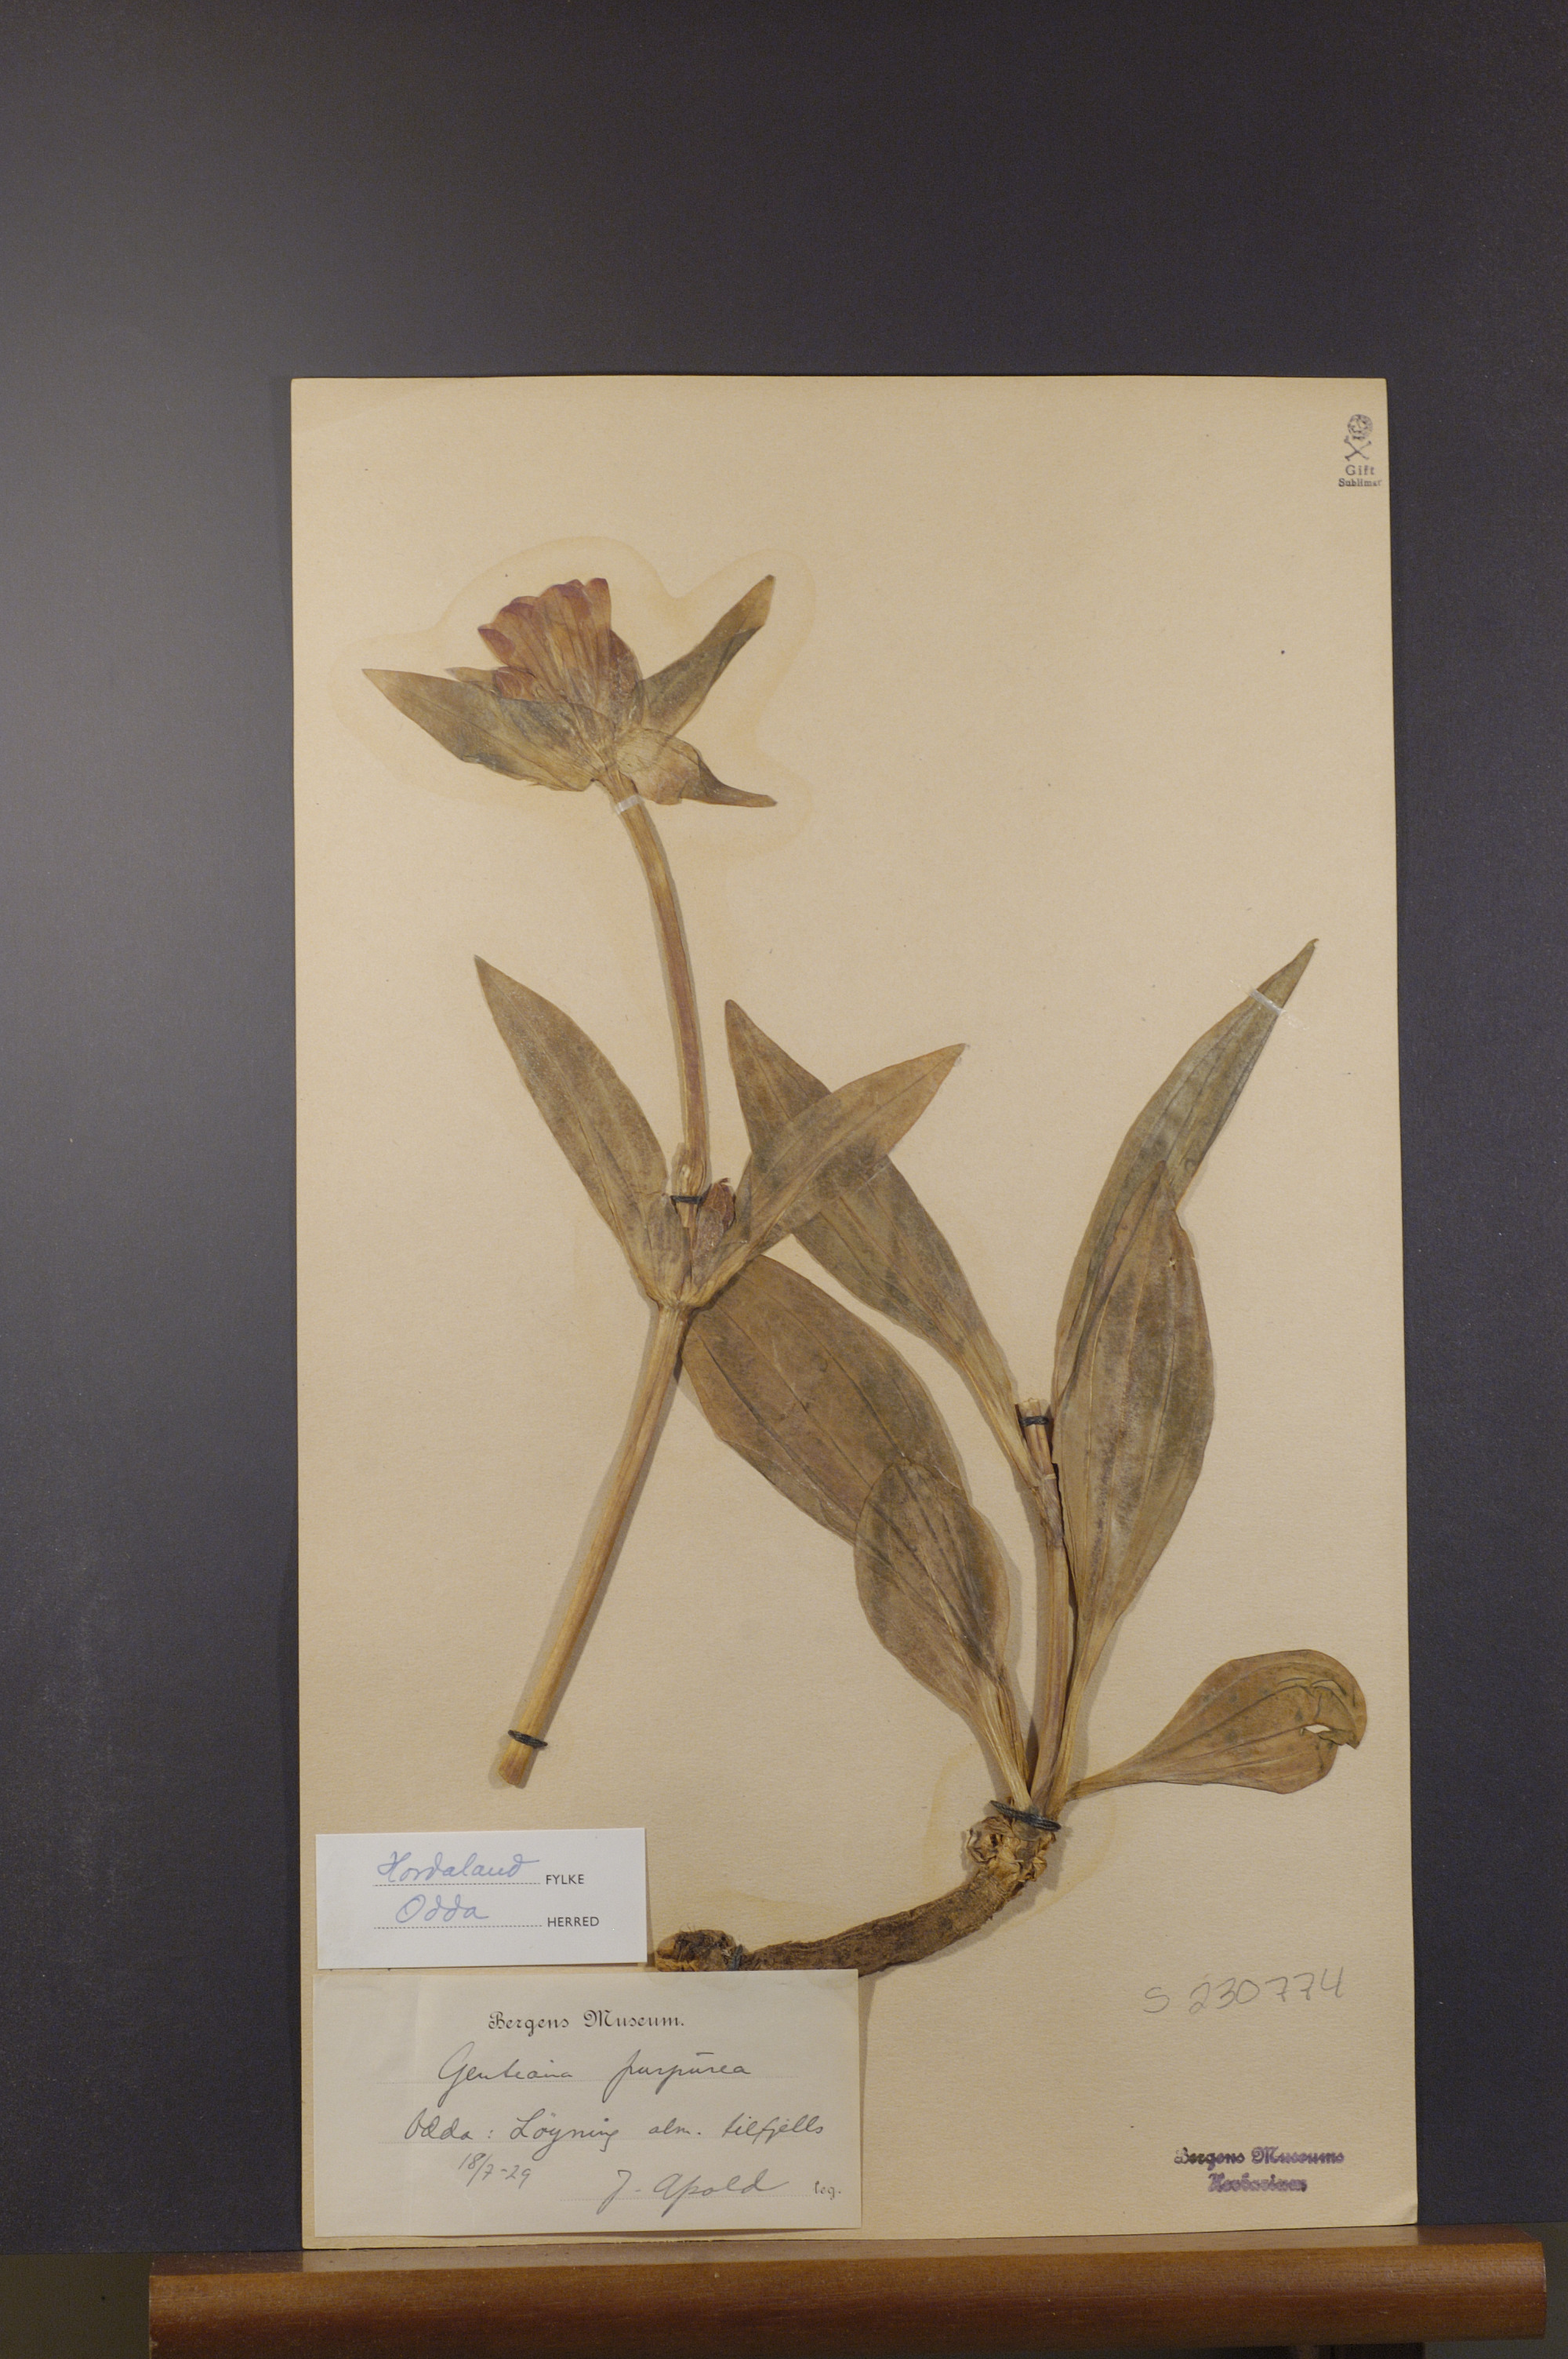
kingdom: Plantae
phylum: Tracheophyta
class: Magnoliopsida
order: Gentianales
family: Gentianaceae
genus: Gentiana
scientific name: Gentiana purpurea
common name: Purple gentian
